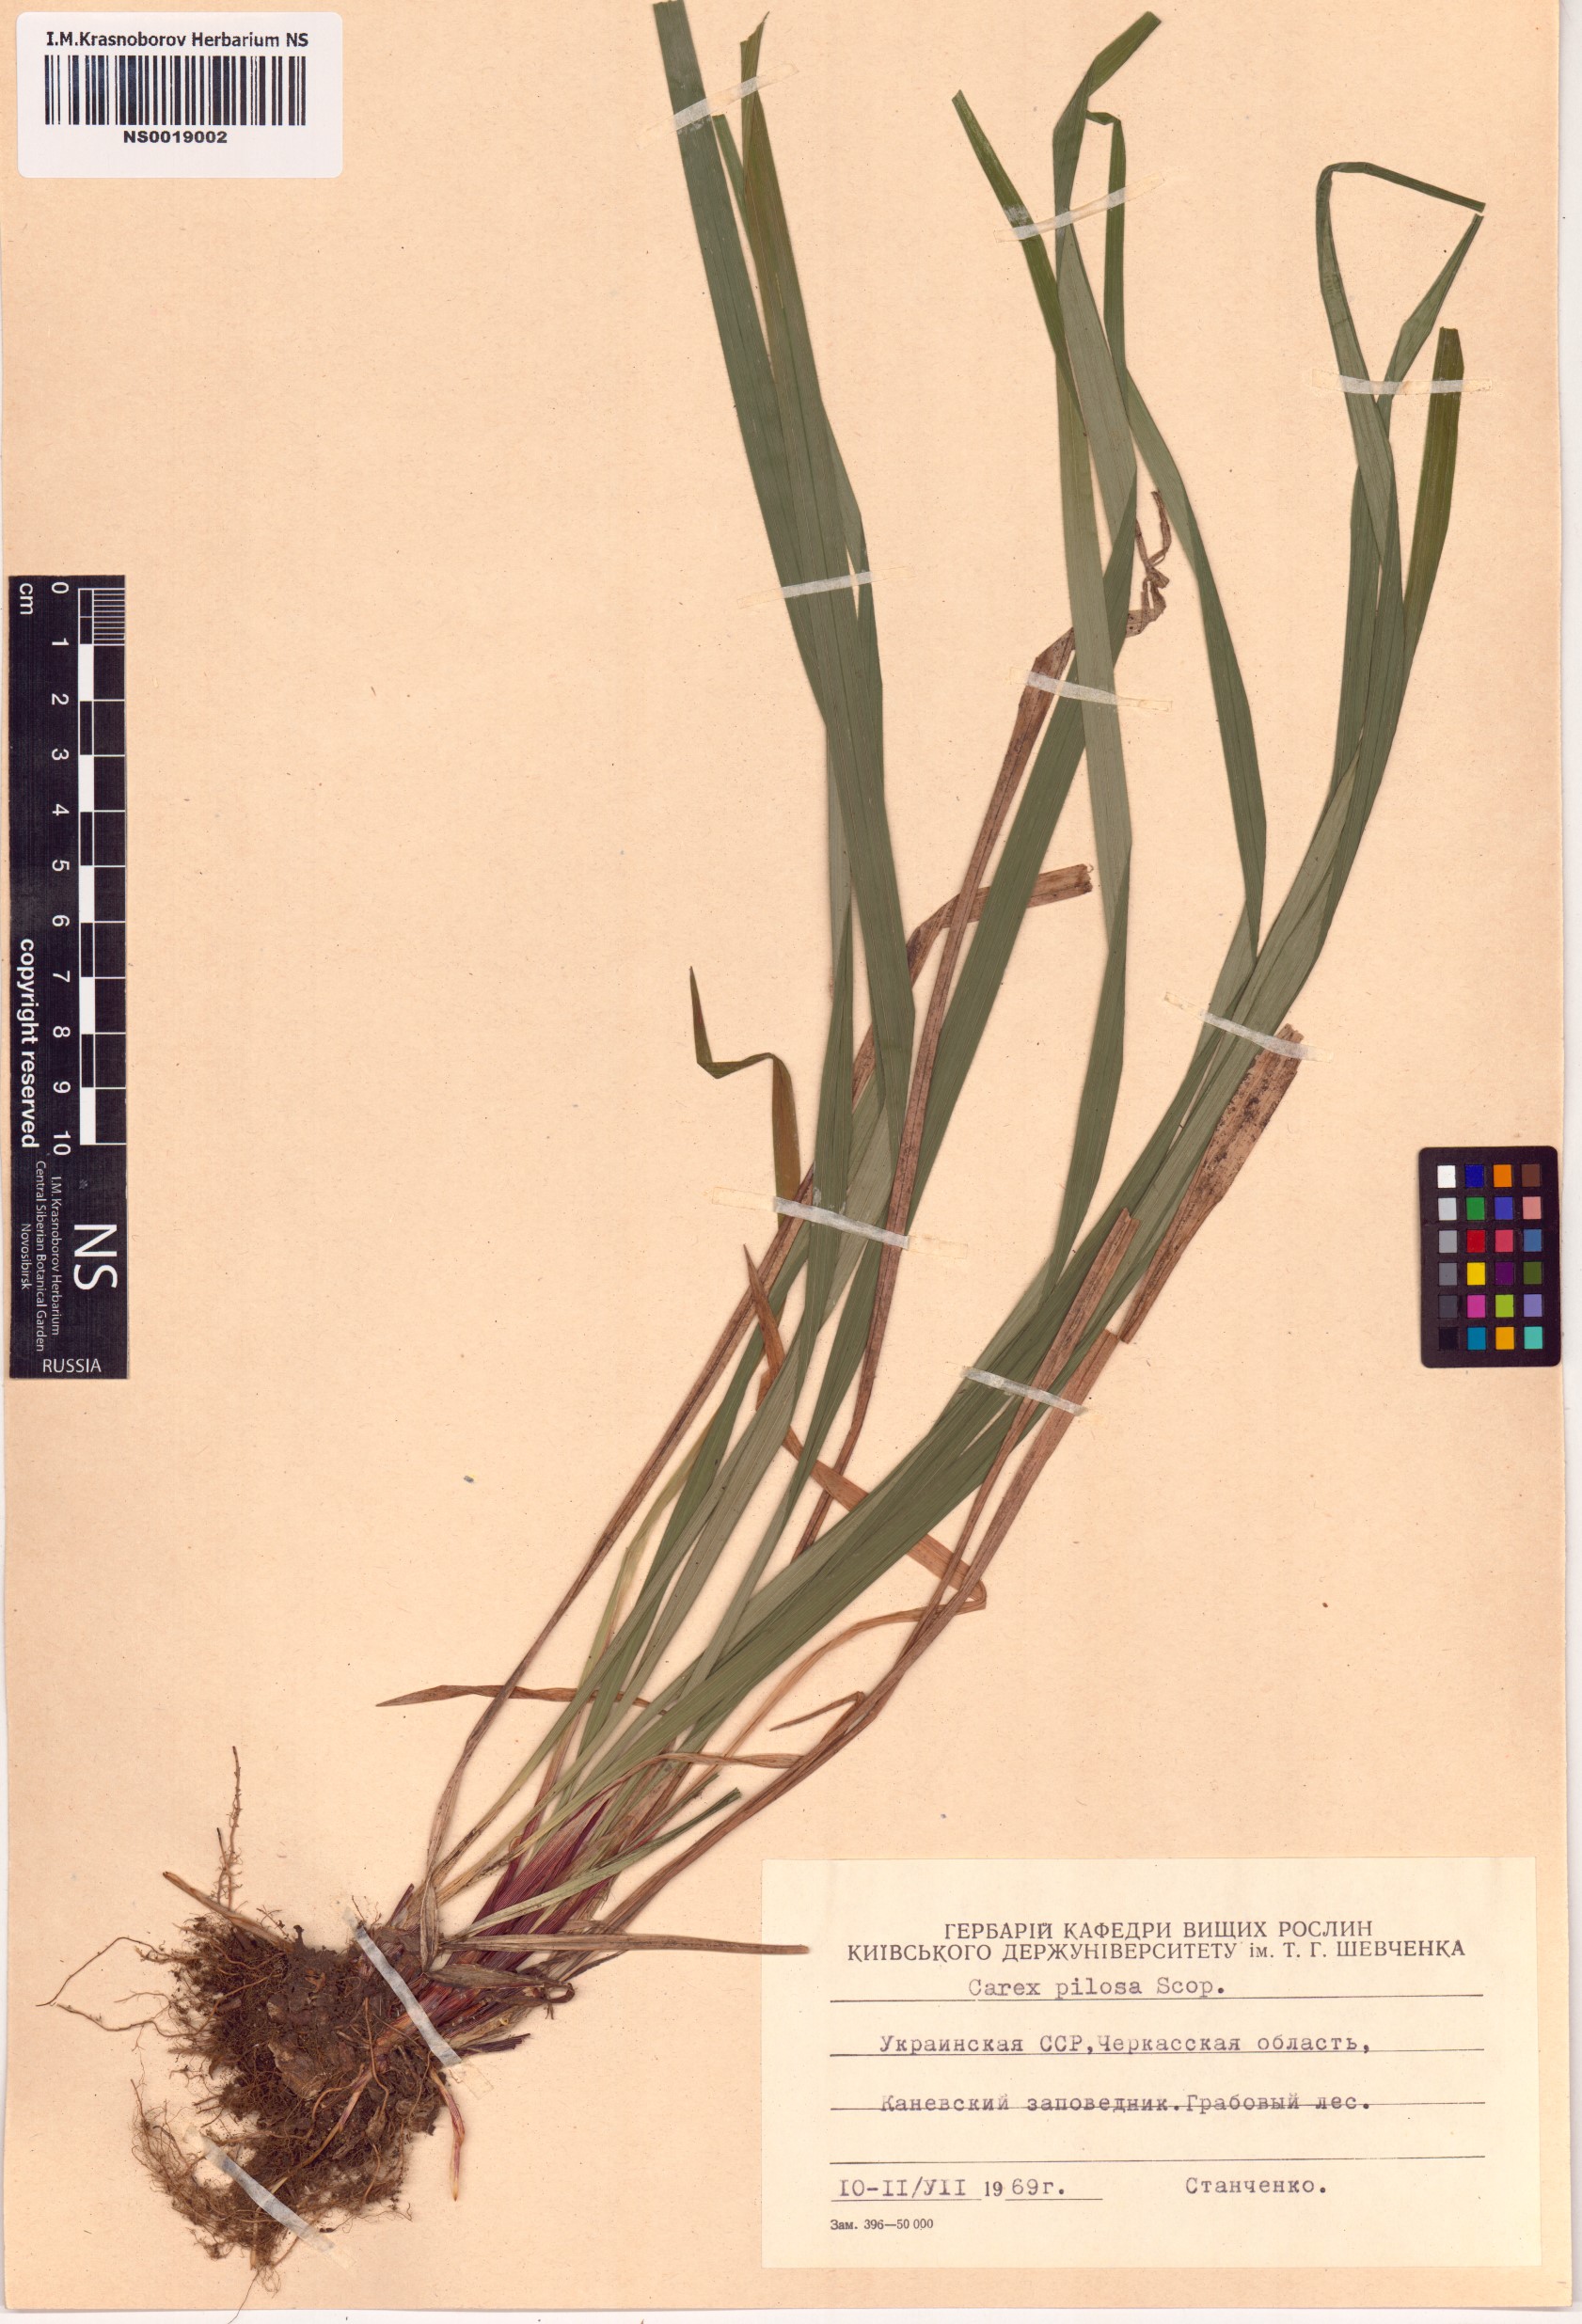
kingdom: Plantae
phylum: Tracheophyta
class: Liliopsida
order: Poales
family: Cyperaceae
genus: Carex
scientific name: Carex pilosa
